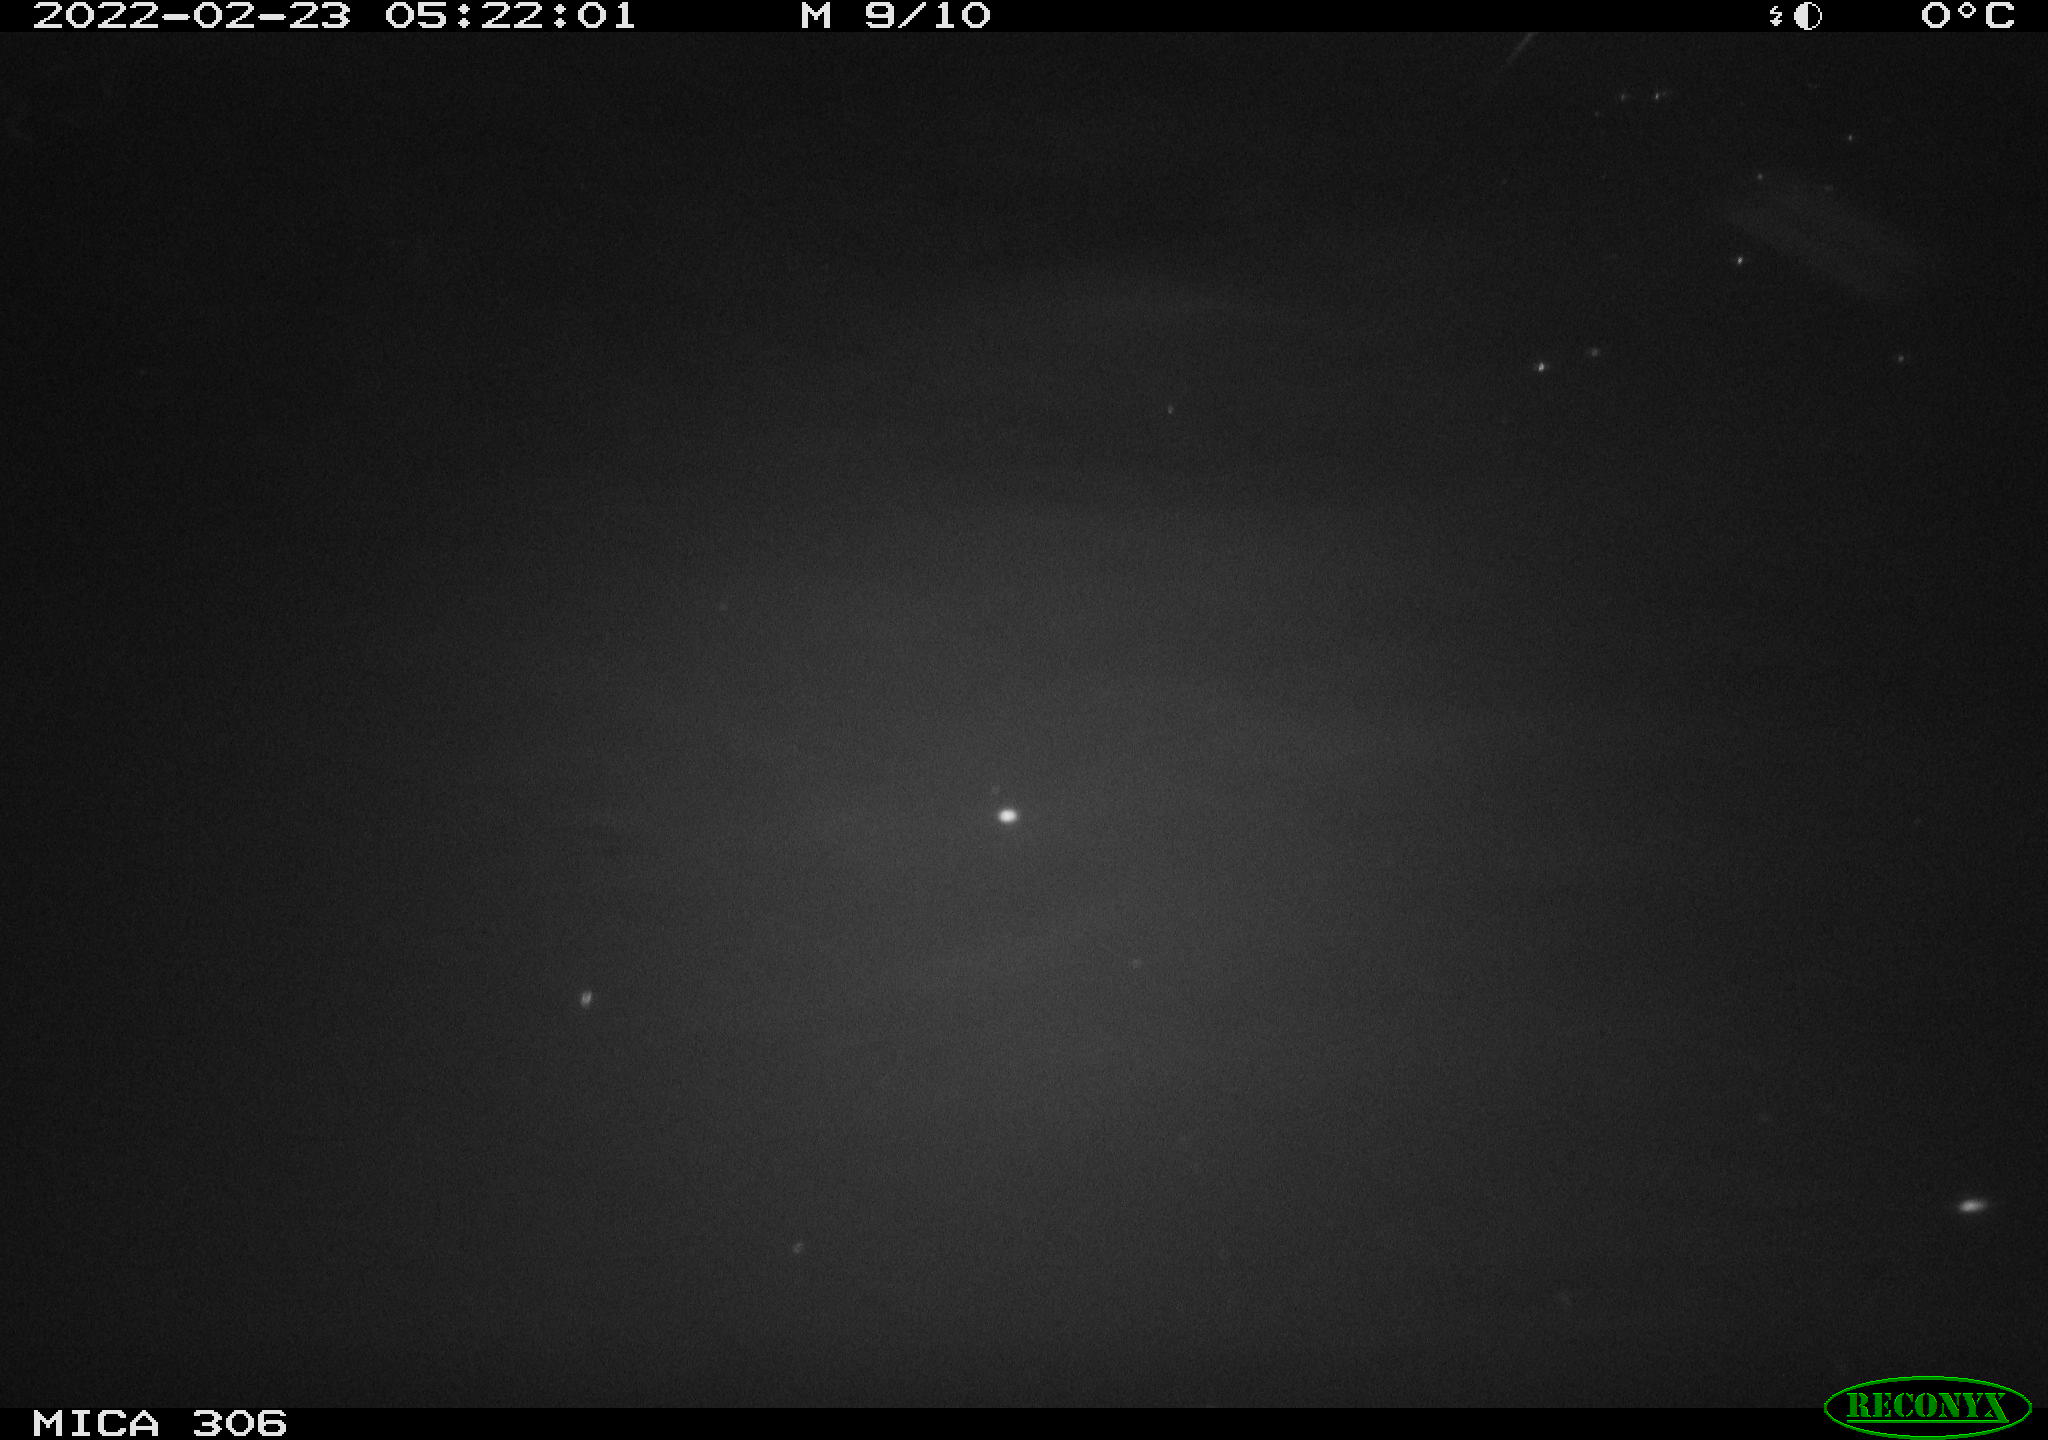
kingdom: Animalia
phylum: Chordata
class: Mammalia
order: Rodentia
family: Cricetidae
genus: Ondatra
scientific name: Ondatra zibethicus
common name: Muskrat
